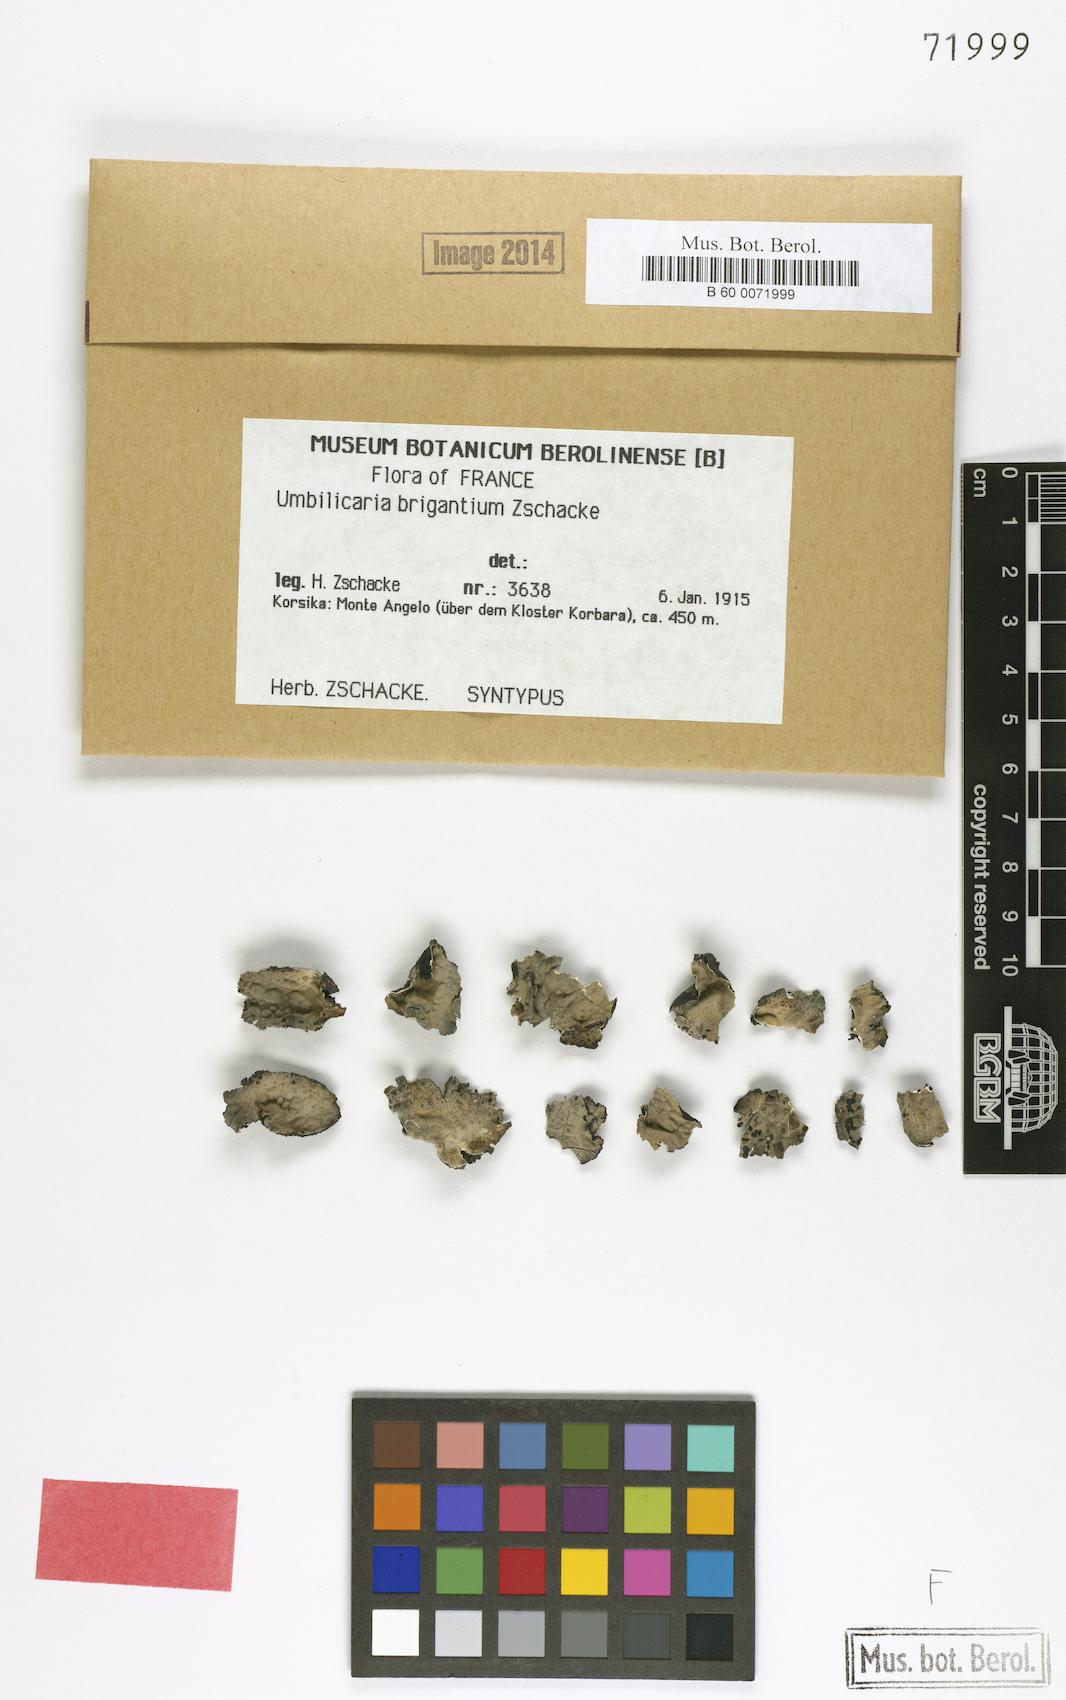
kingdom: Fungi
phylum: Ascomycota
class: Lecanoromycetes
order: Umbilicariales
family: Umbilicariaceae
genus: Lasallia
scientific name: Lasallia brigantium
